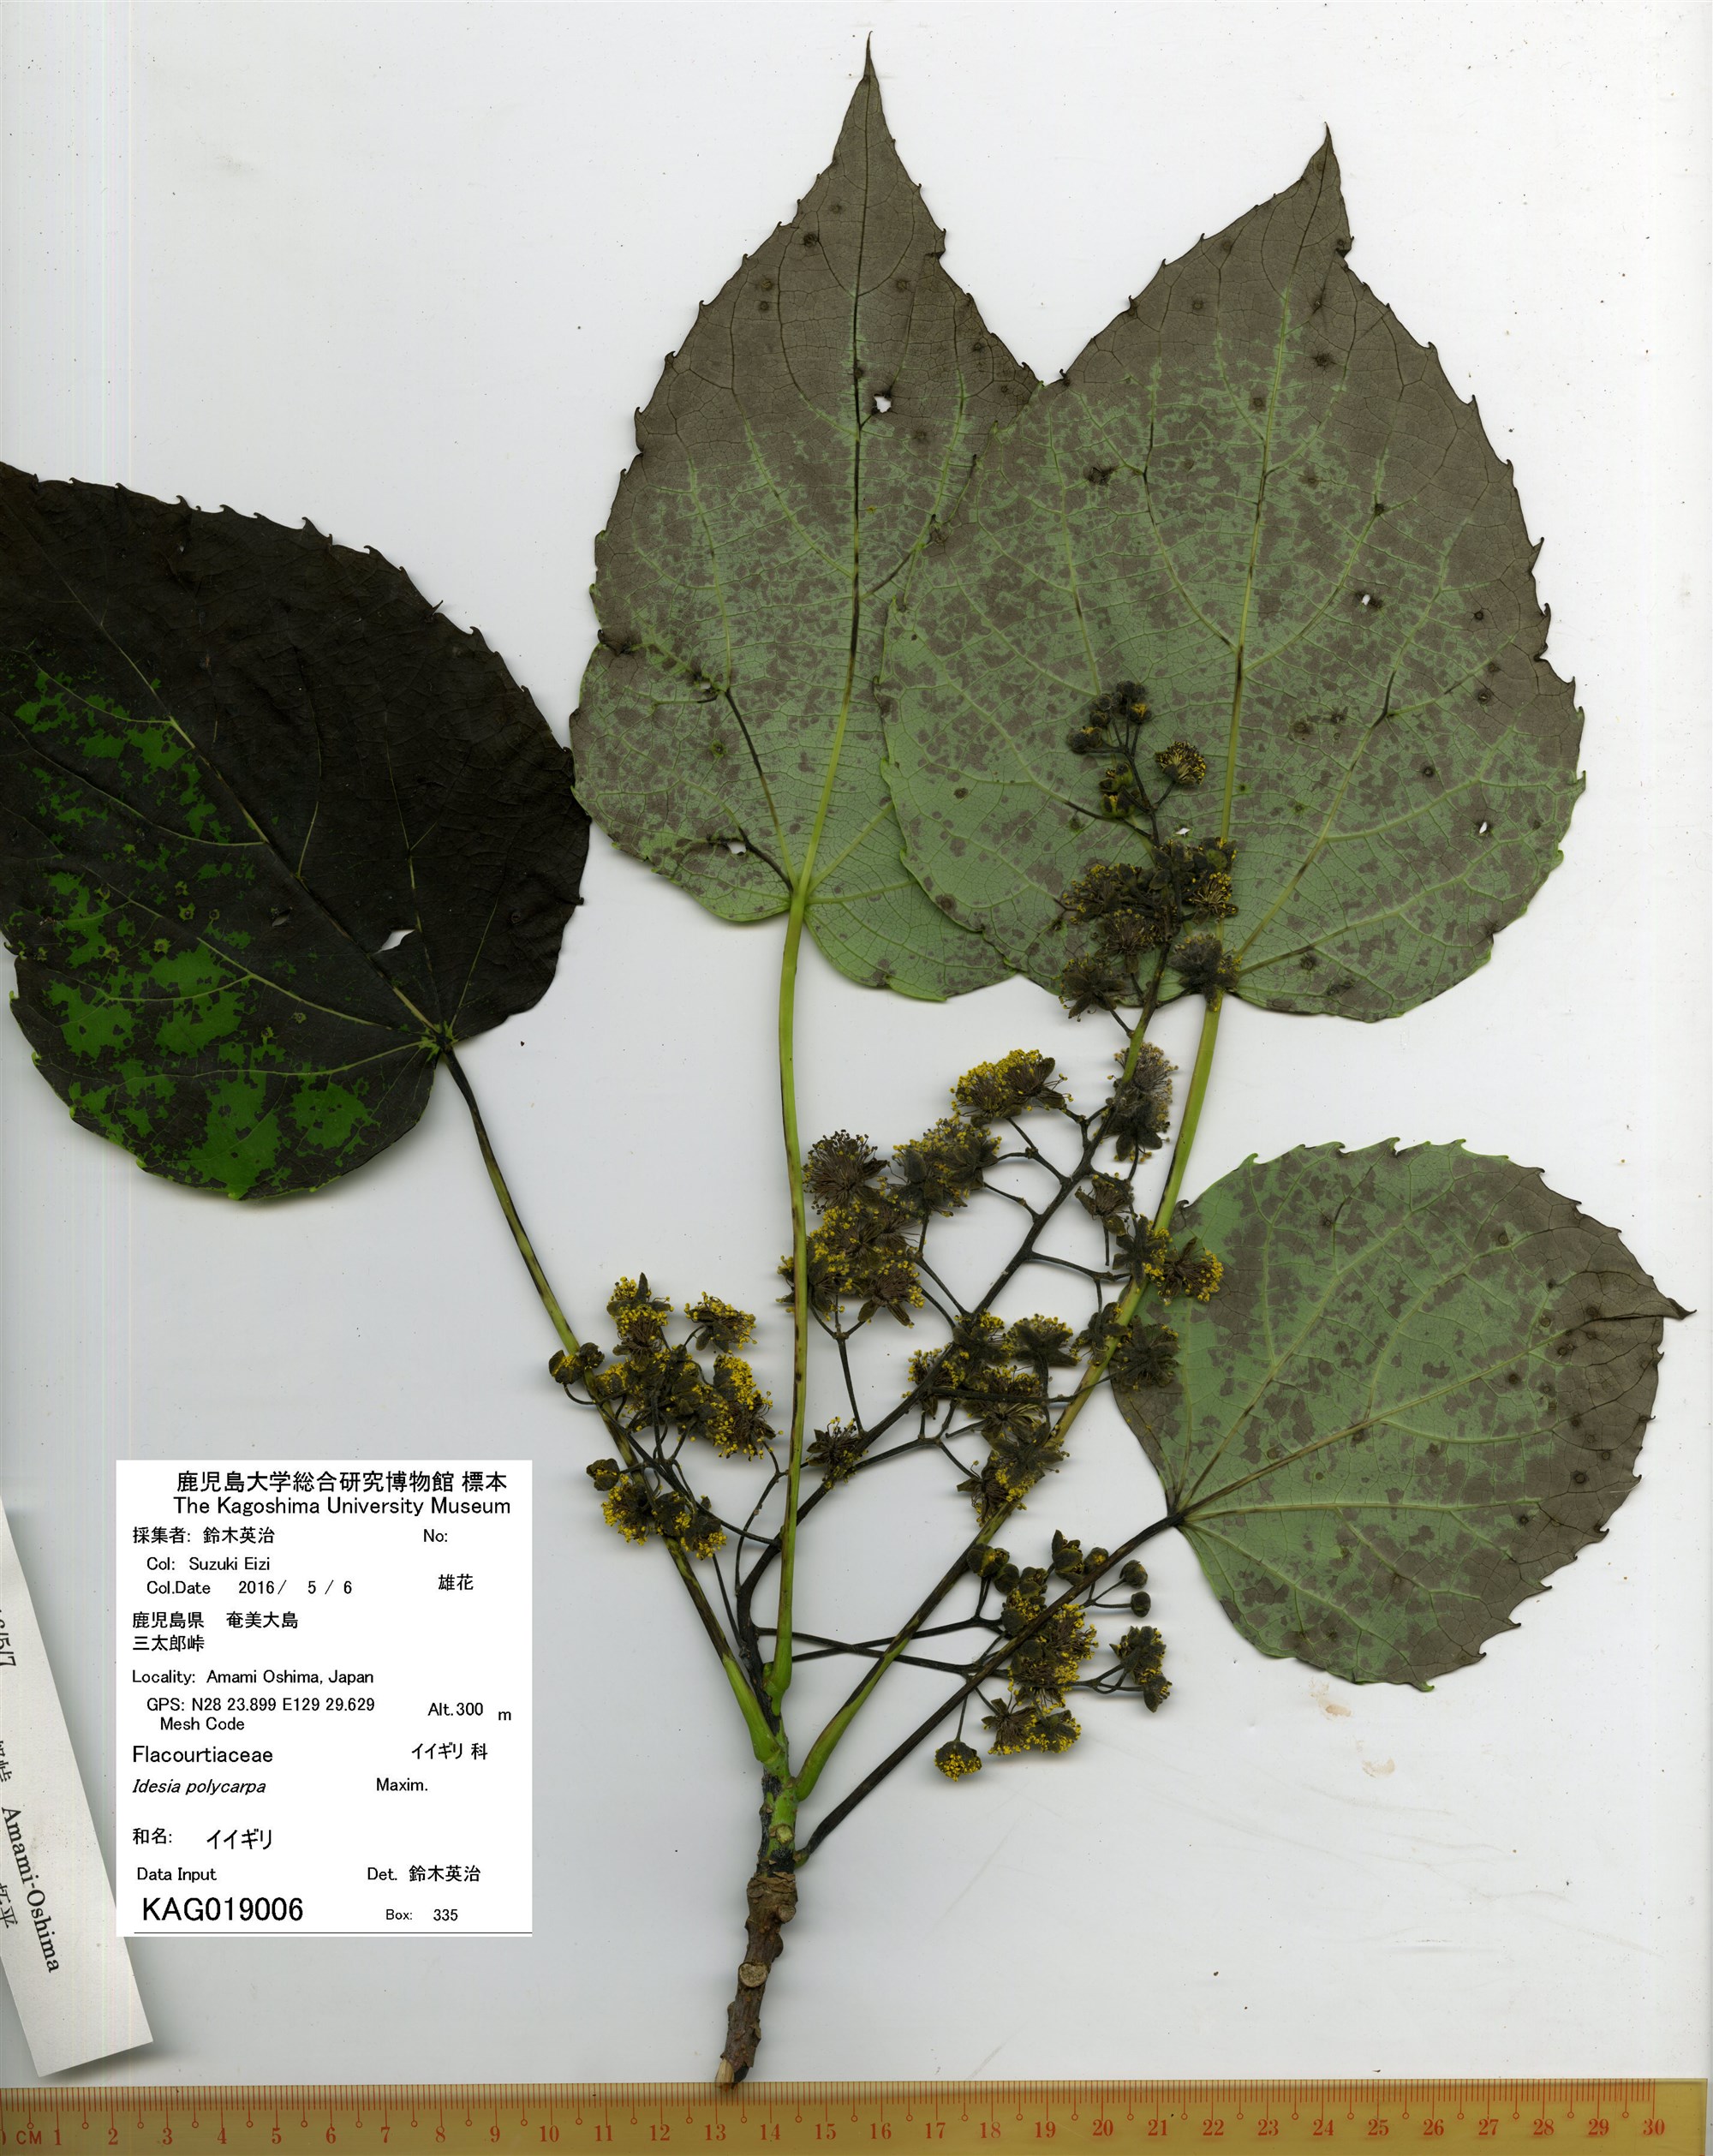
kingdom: Plantae
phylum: Tracheophyta
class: Magnoliopsida
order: Malpighiales
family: Salicaceae
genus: Idesia
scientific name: Idesia polycarpa
